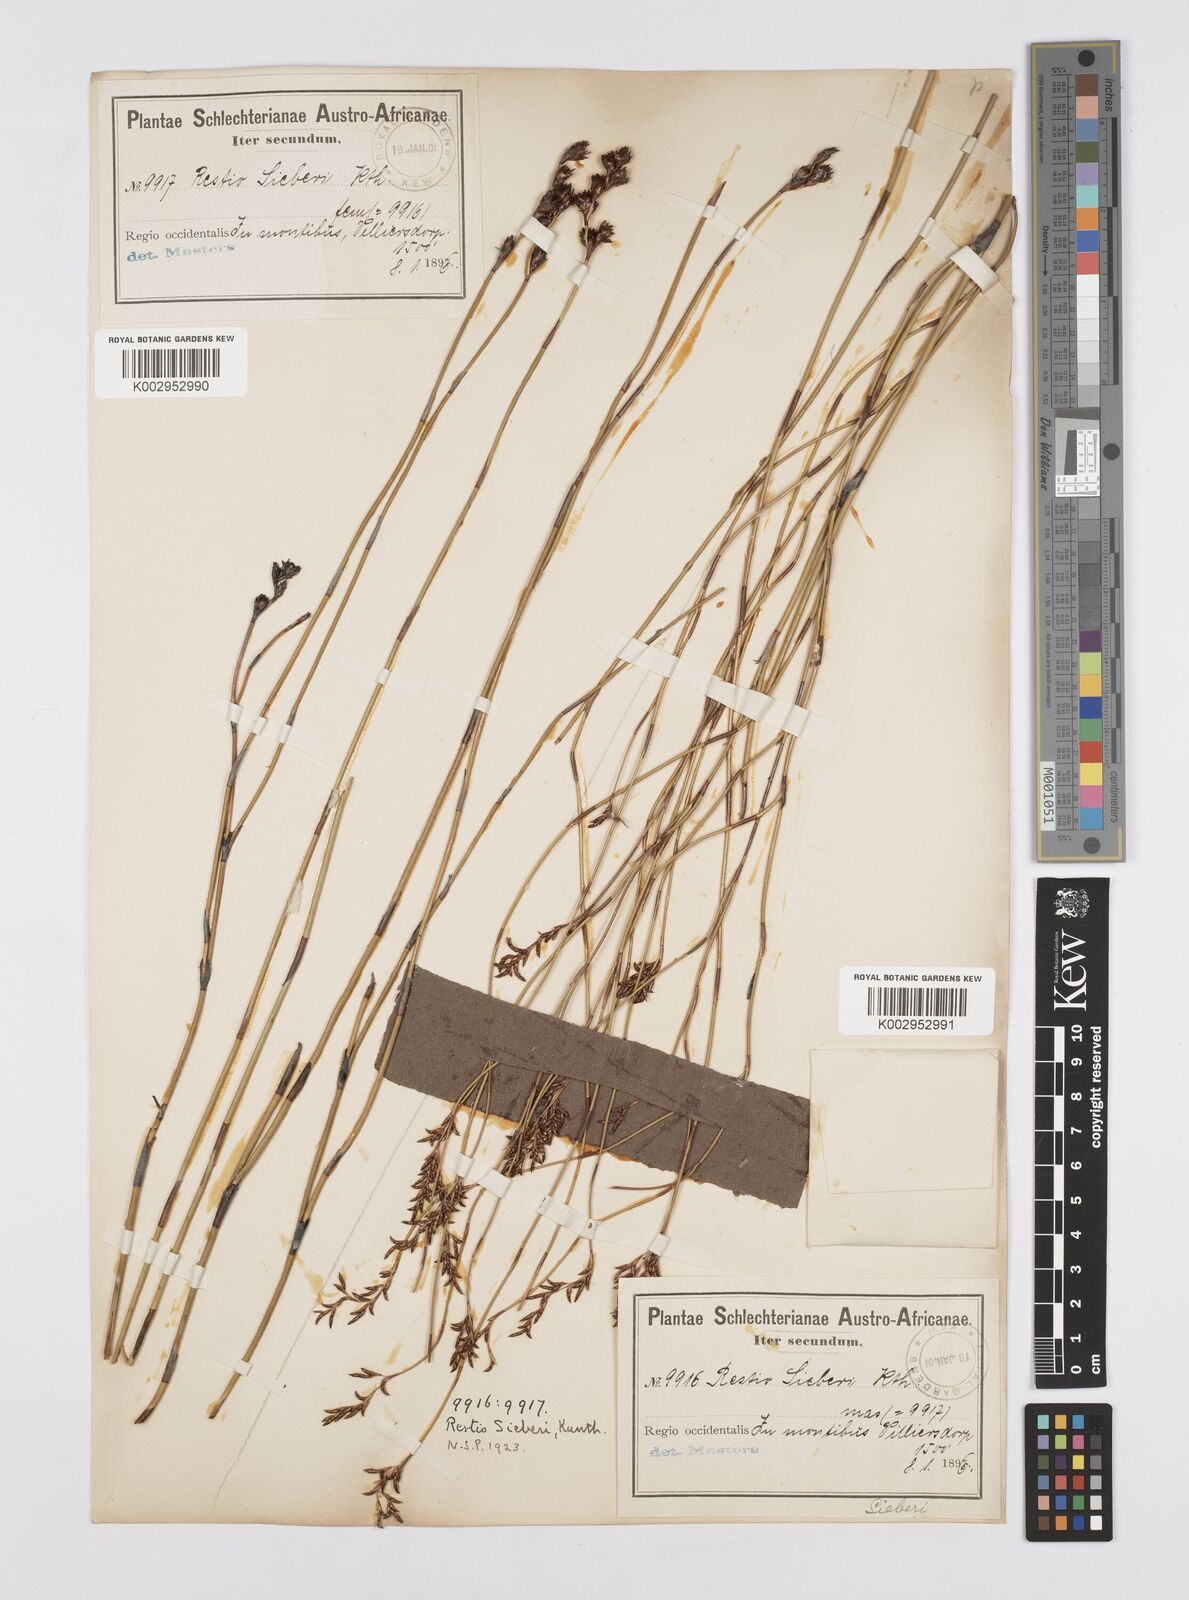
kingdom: Plantae
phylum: Tracheophyta
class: Liliopsida
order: Poales
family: Restionaceae
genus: Restio
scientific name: Restio sieberi
